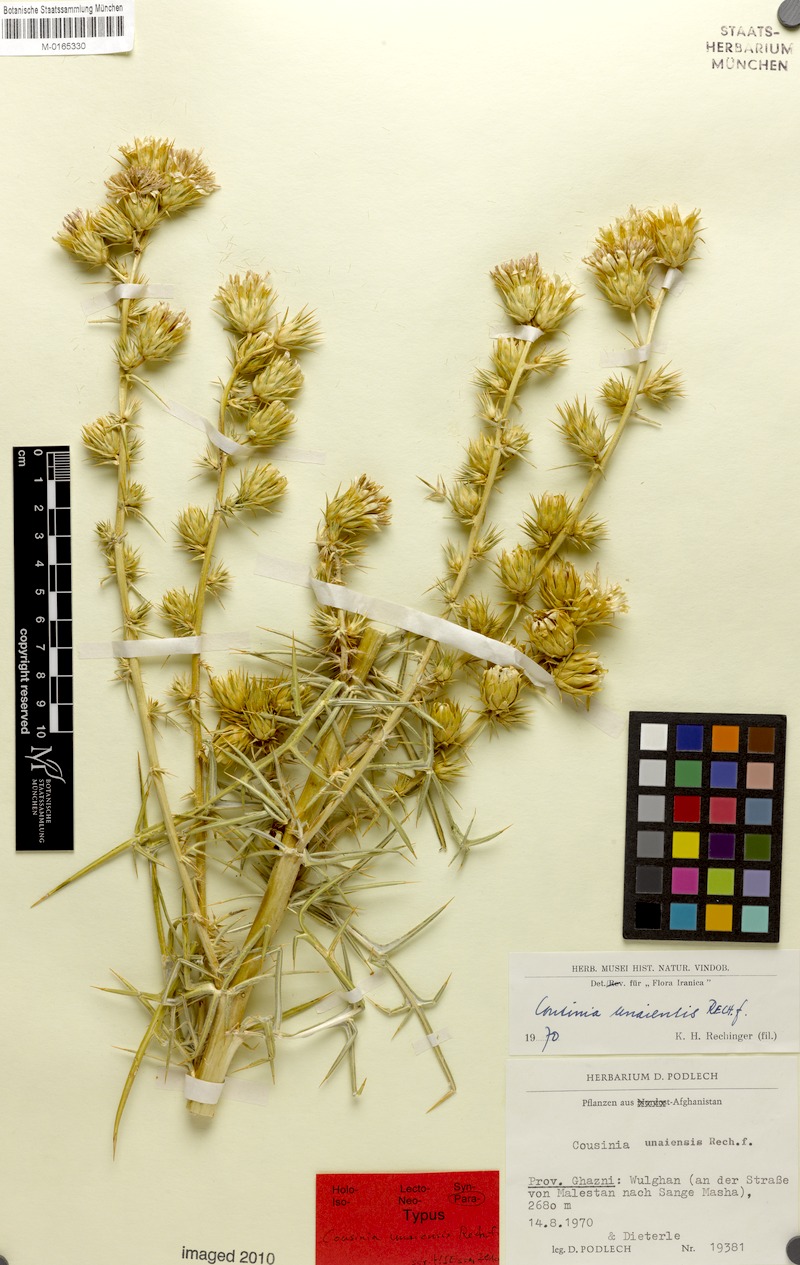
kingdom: Plantae
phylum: Tracheophyta
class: Magnoliopsida
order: Asterales
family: Asteraceae
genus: Cousinia
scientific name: Cousinia unaiensis
